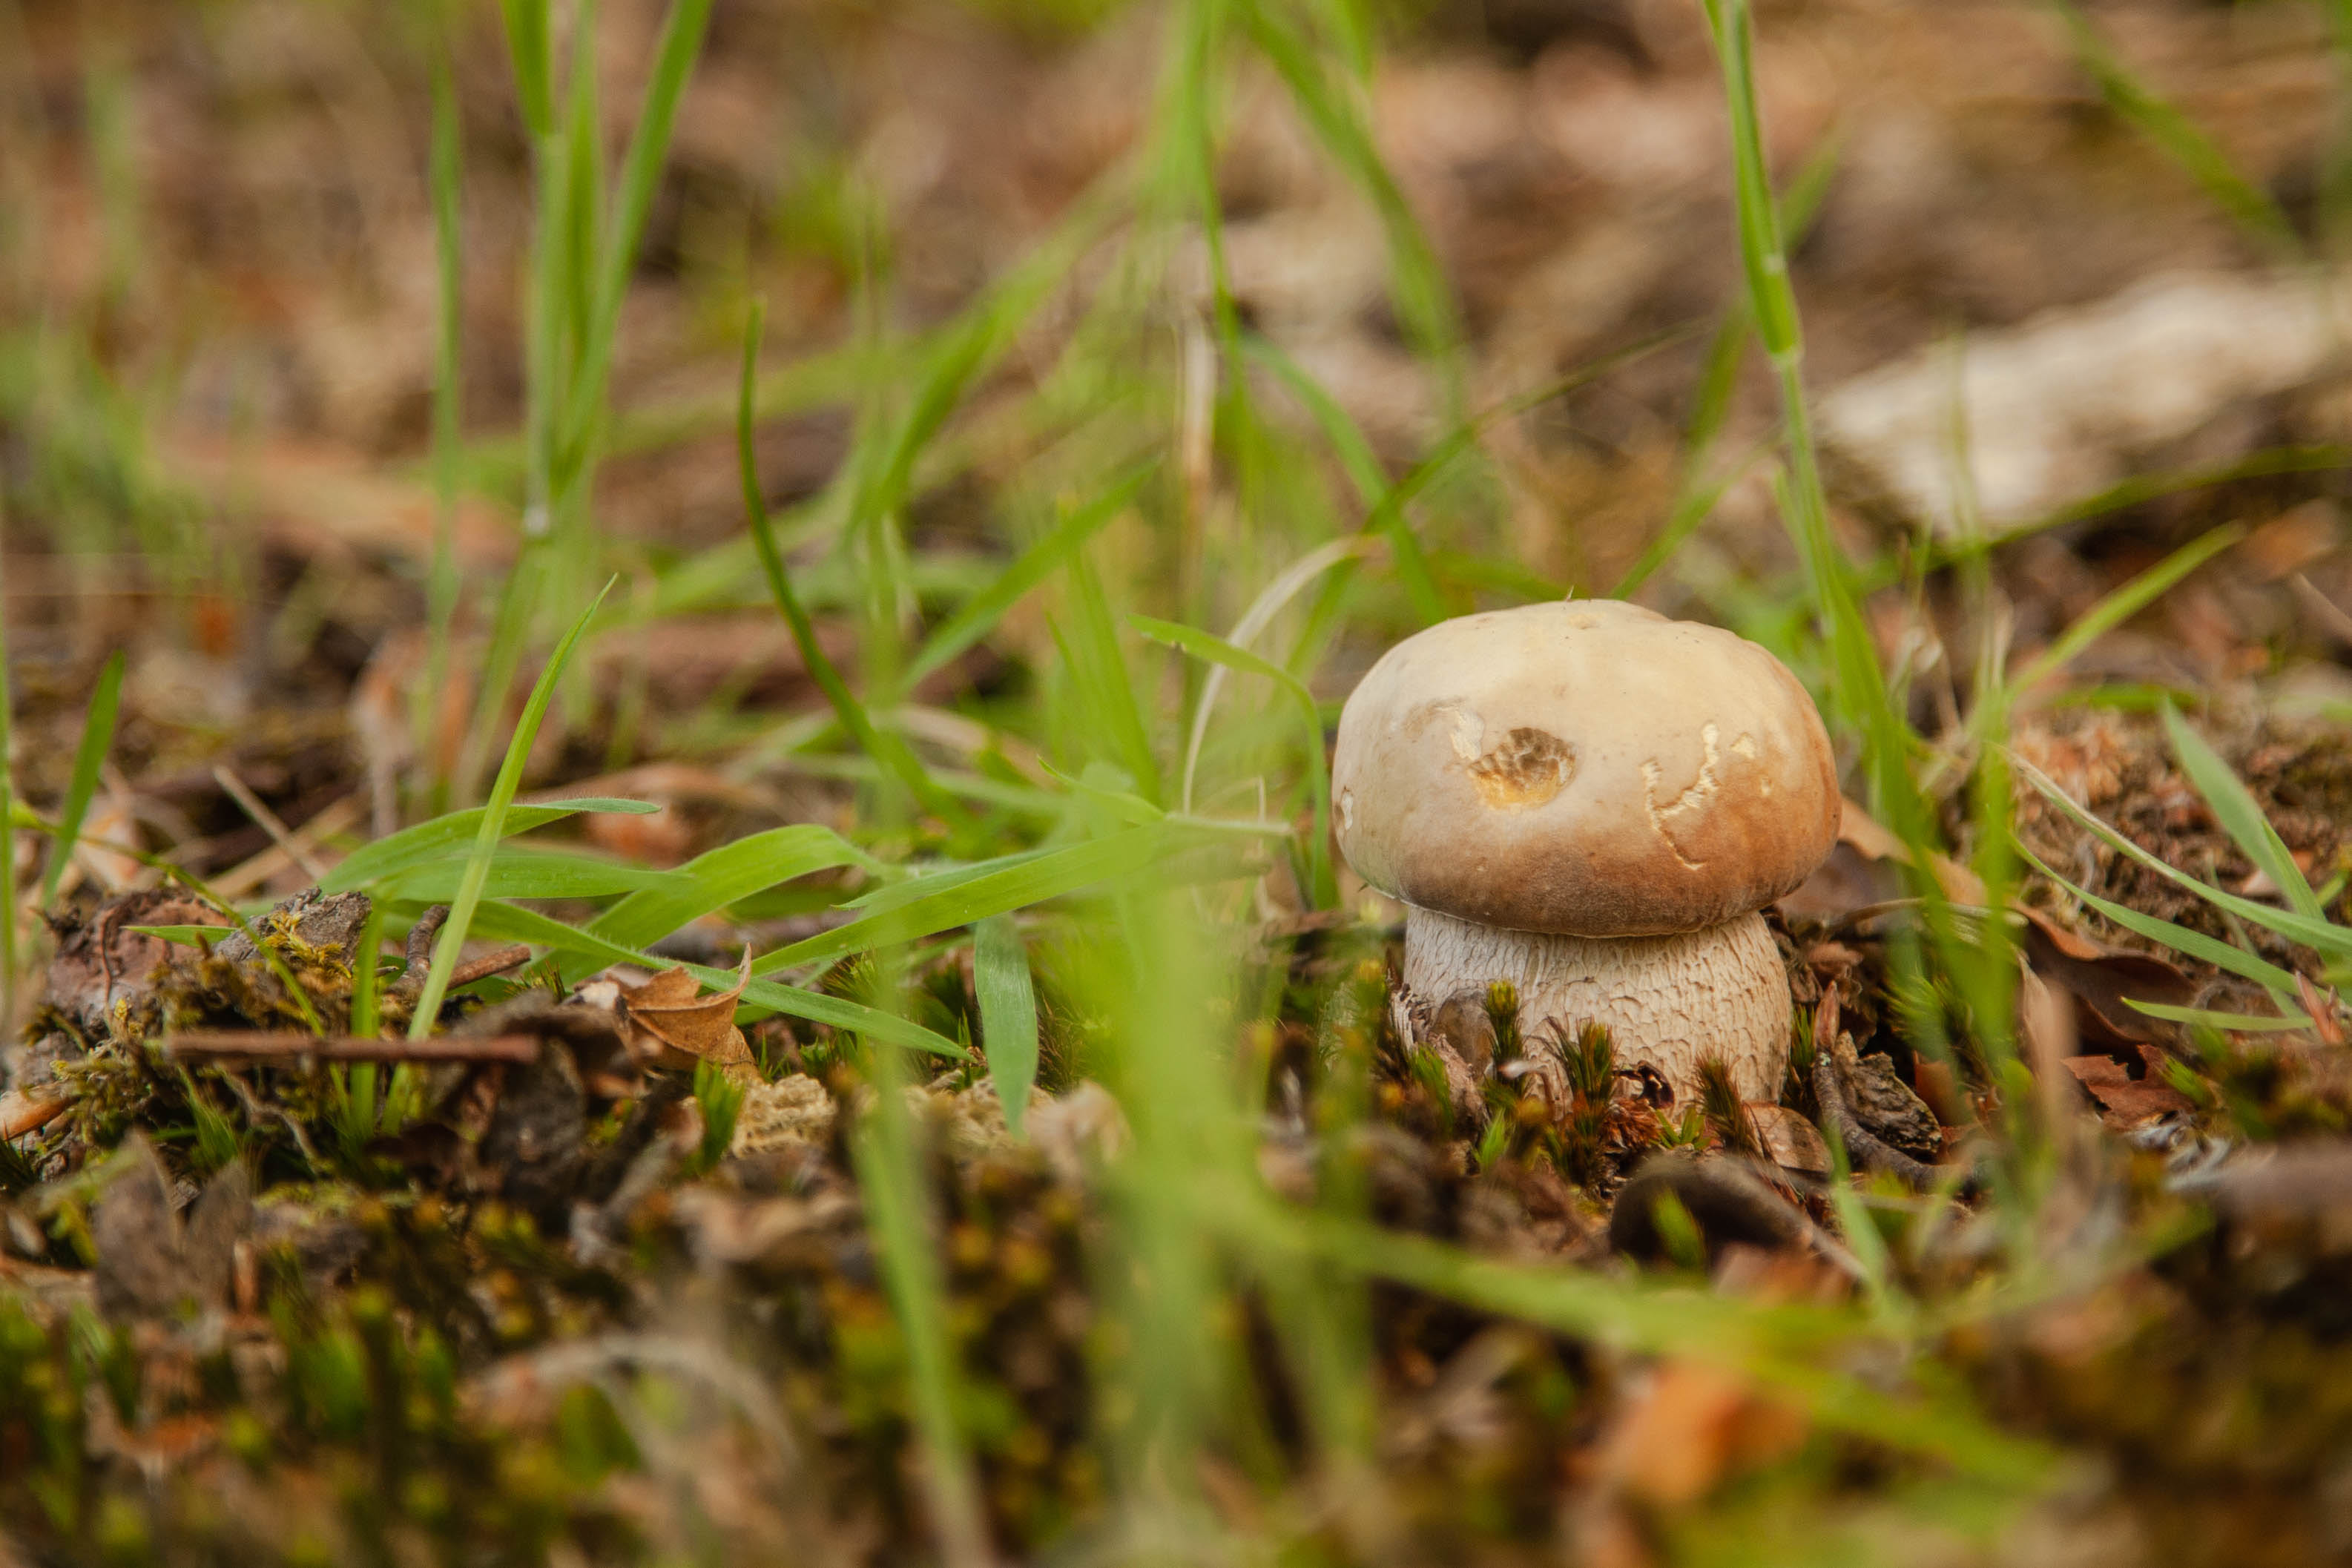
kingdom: Fungi
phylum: Basidiomycota
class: Agaricomycetes
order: Boletales
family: Boletaceae
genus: Boletus
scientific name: Boletus reticulatus
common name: sommer-rørhat
